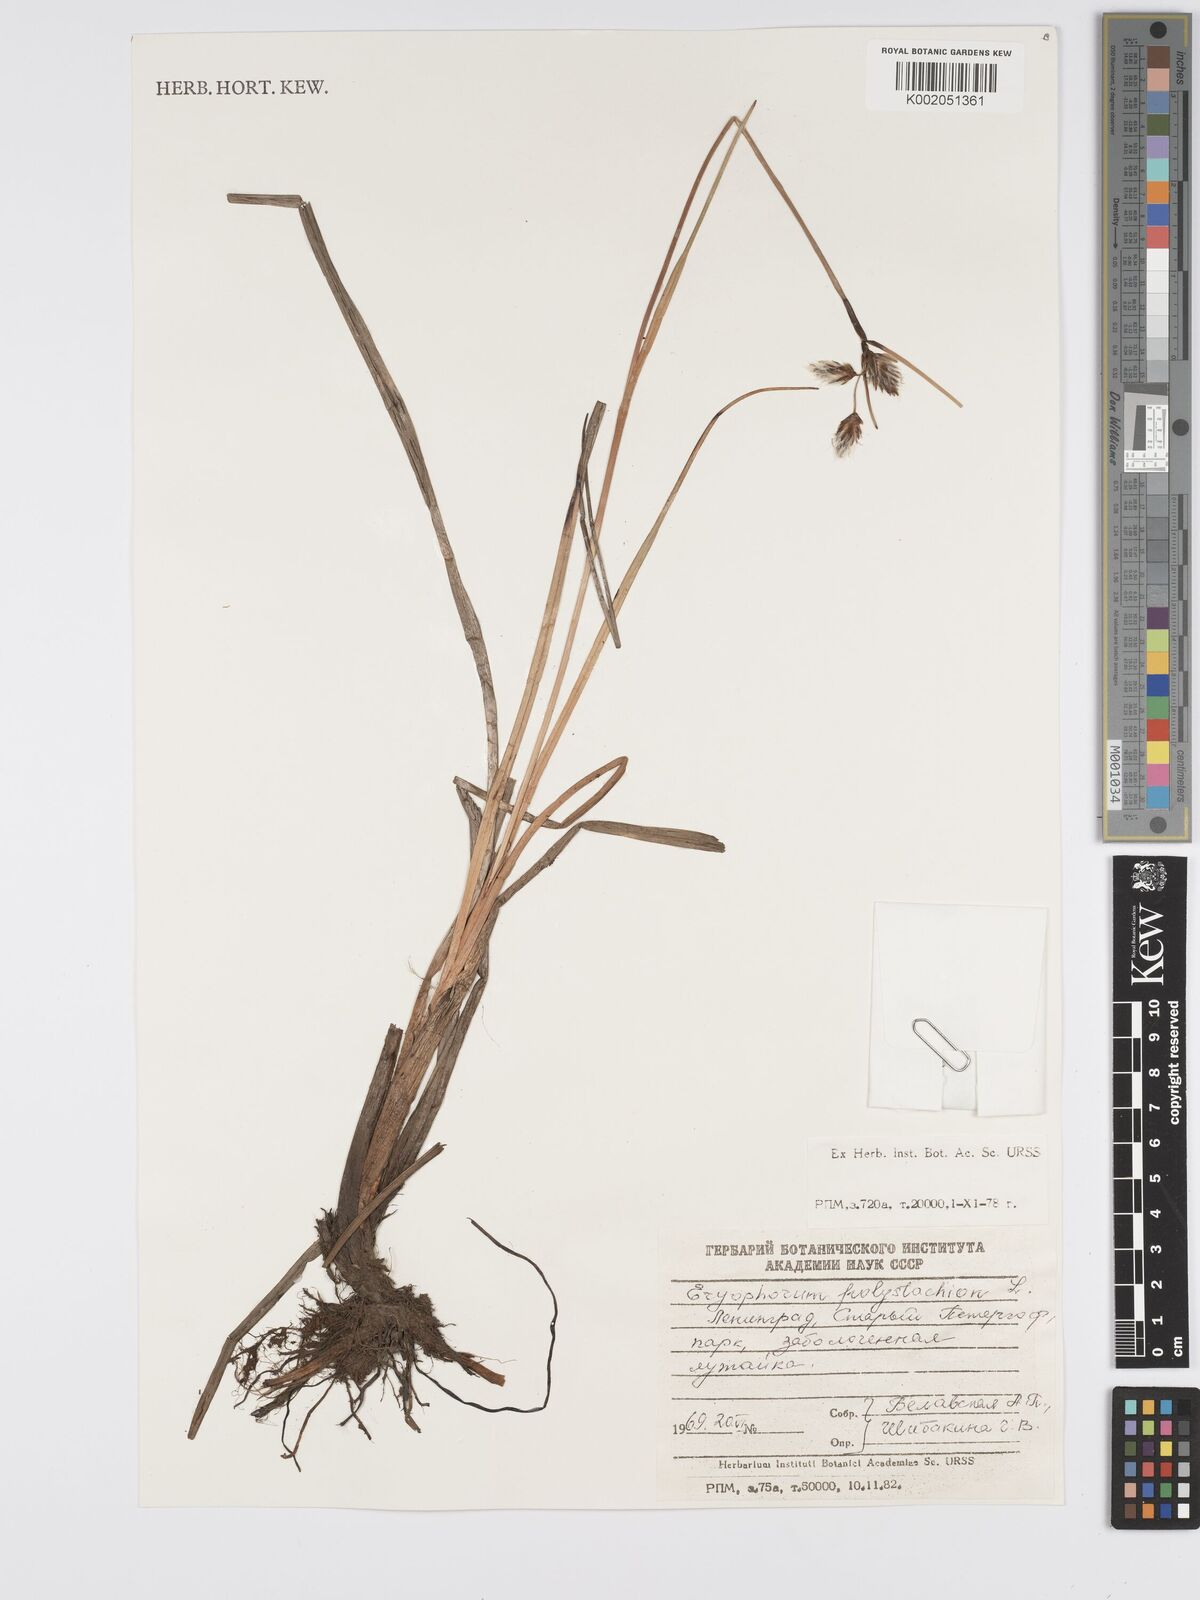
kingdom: Plantae
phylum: Tracheophyta
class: Liliopsida
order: Poales
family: Cyperaceae
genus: Eriophorum
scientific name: Eriophorum angustifolium
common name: Common cottongrass
